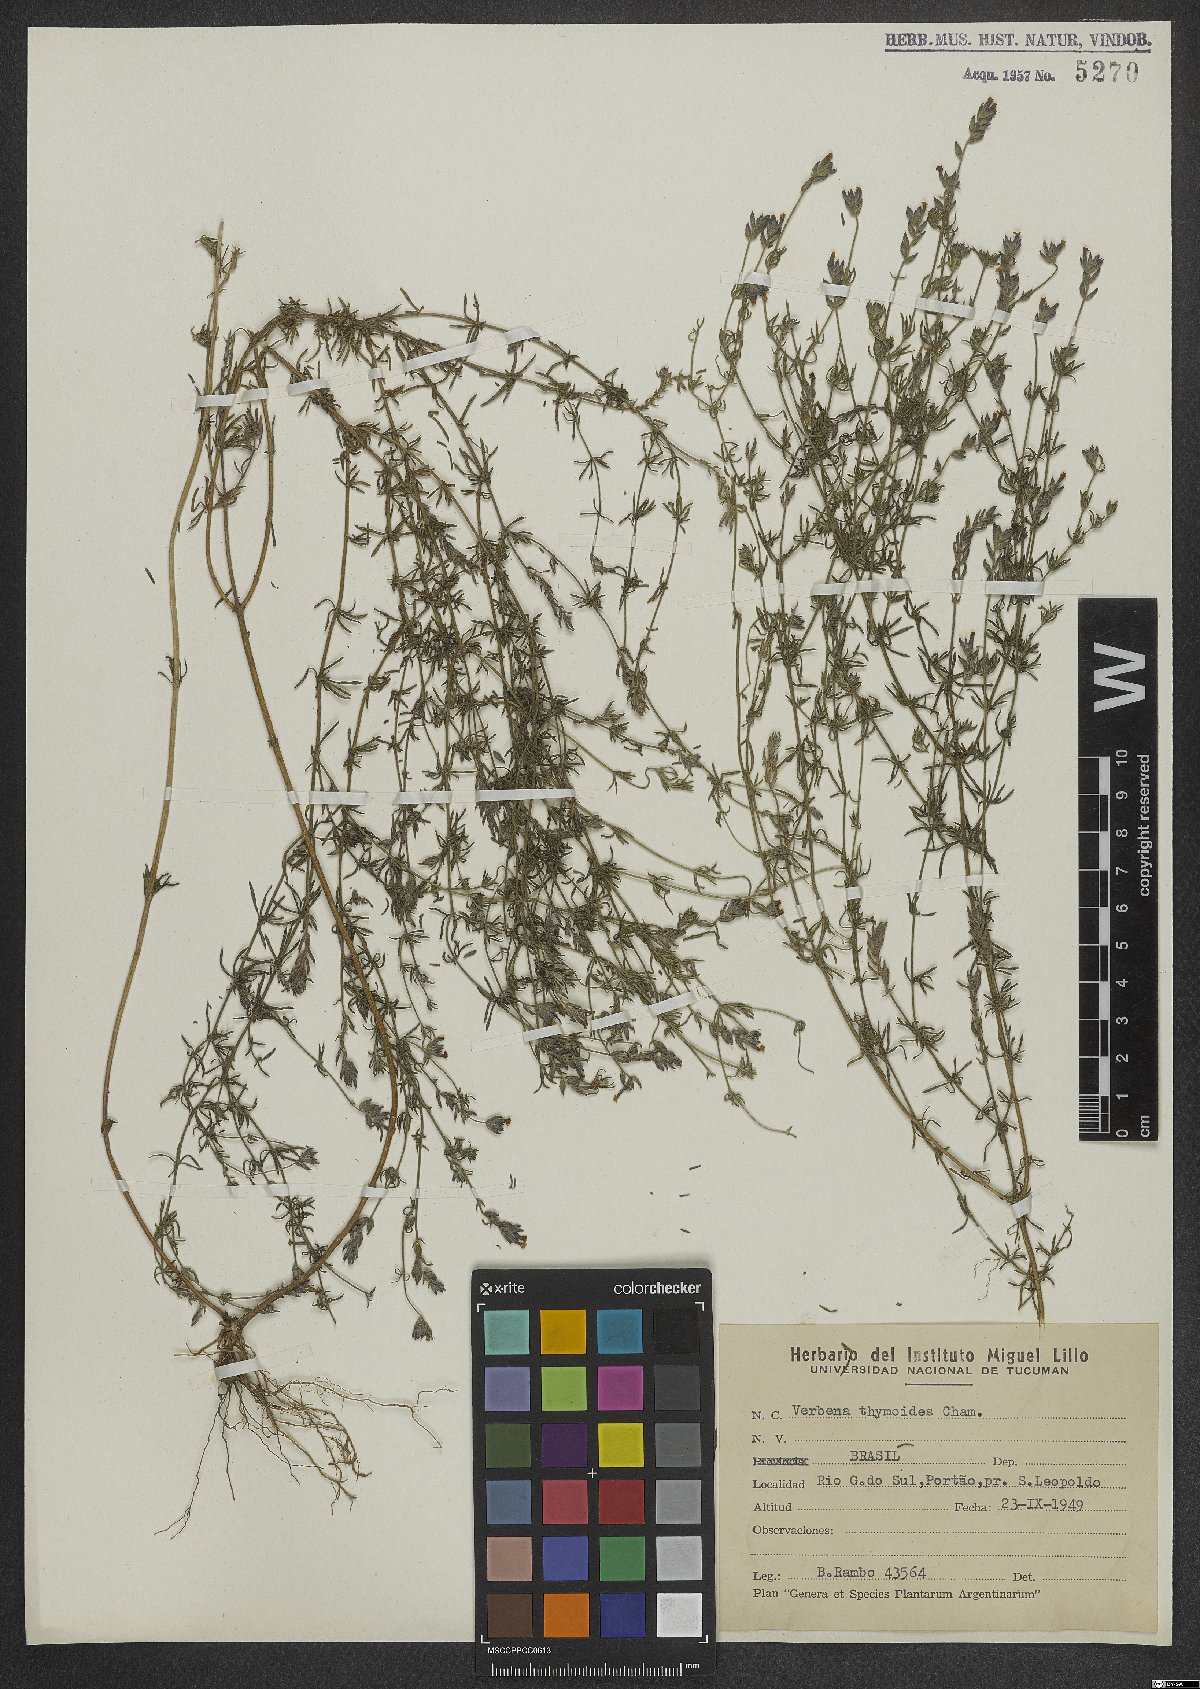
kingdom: Plantae
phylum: Tracheophyta
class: Magnoliopsida
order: Lamiales
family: Verbenaceae
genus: Verbena
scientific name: Verbena thymoides
